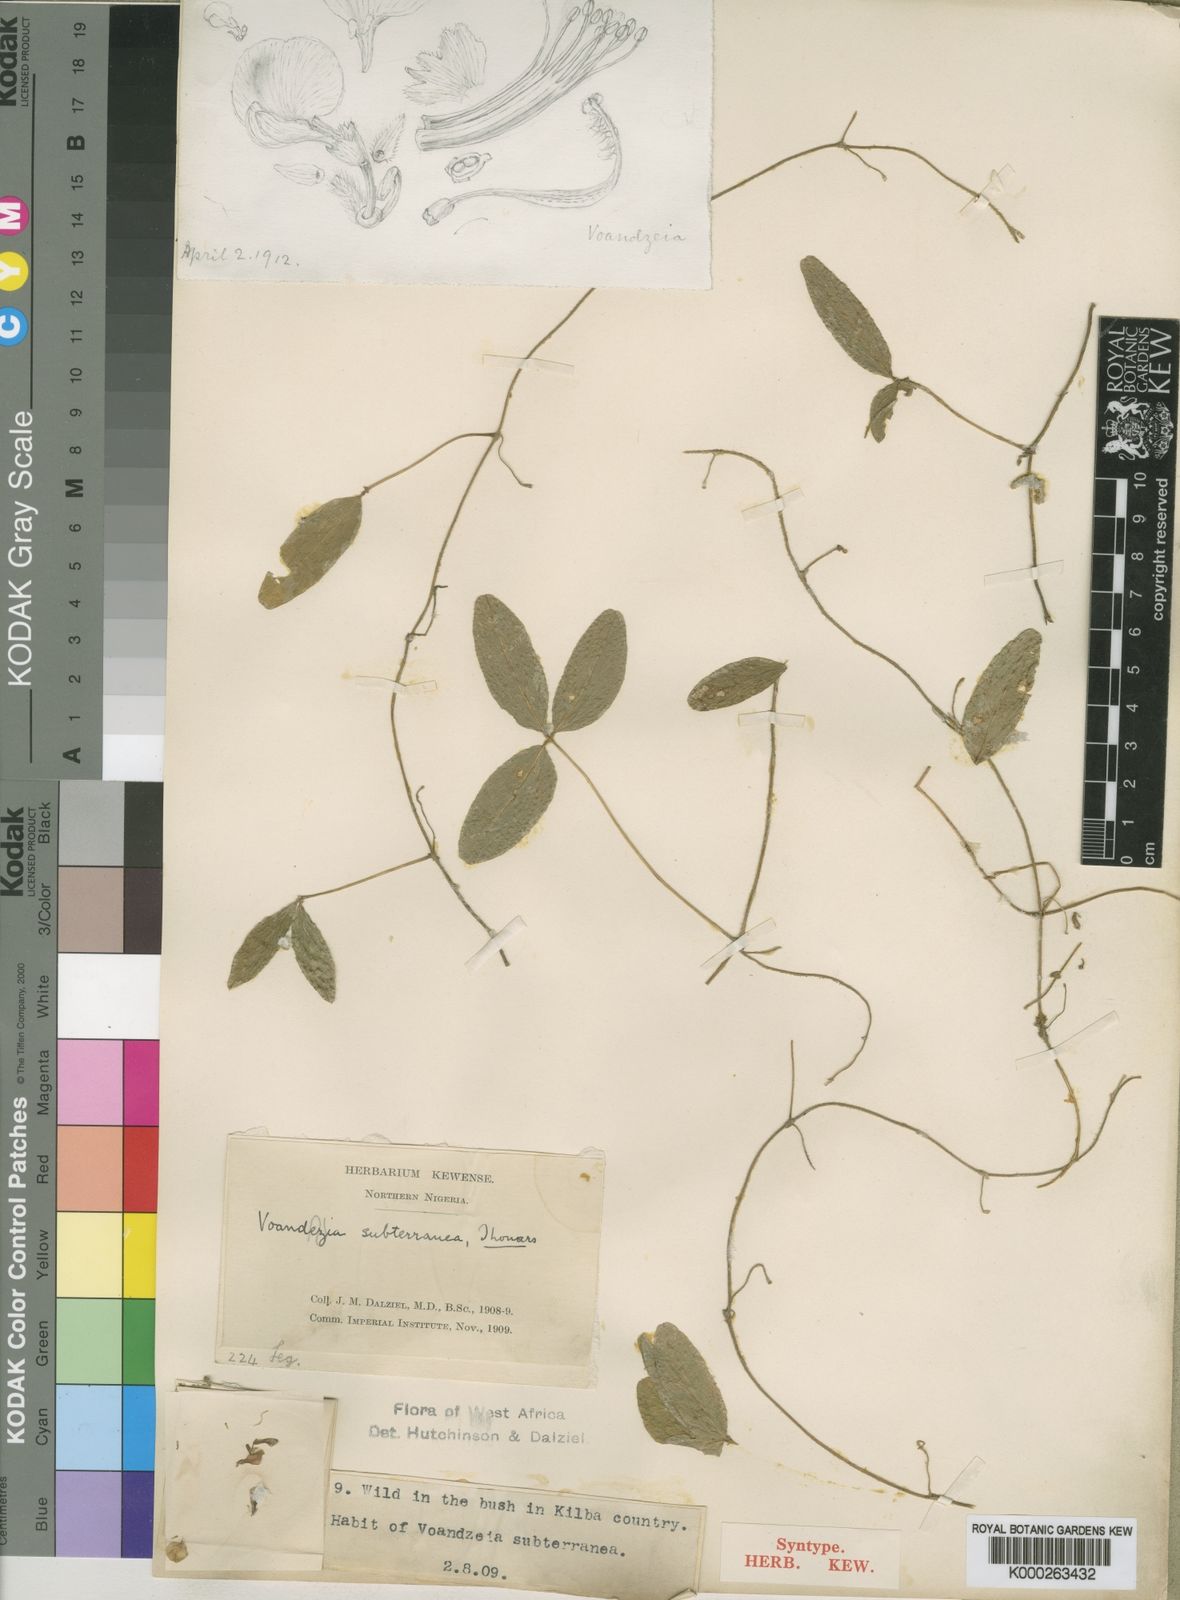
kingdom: Plantae
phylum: Tracheophyta
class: Magnoliopsida
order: Fabales
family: Fabaceae
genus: Vigna
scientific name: Vigna subterranea
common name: Bambara groundnut
